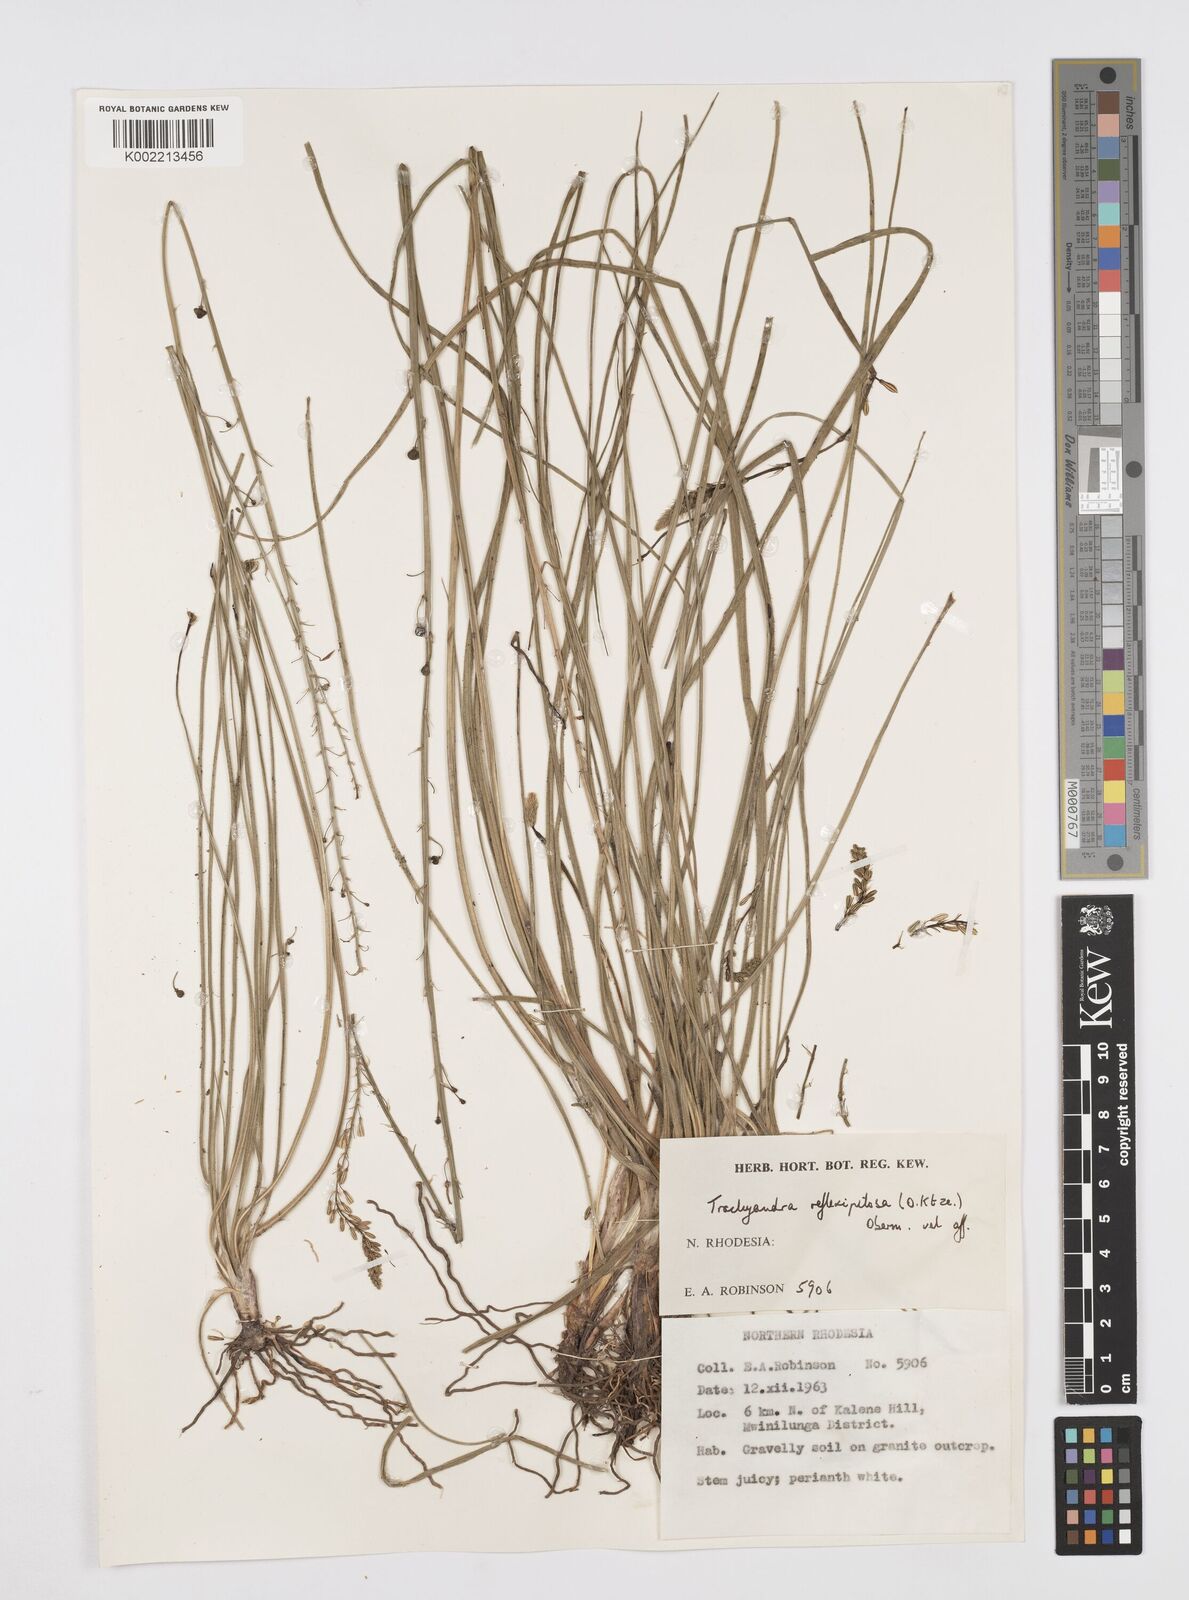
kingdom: Plantae
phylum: Tracheophyta
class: Liliopsida
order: Asparagales
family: Asphodelaceae
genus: Trachyandra
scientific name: Trachyandra saltii
